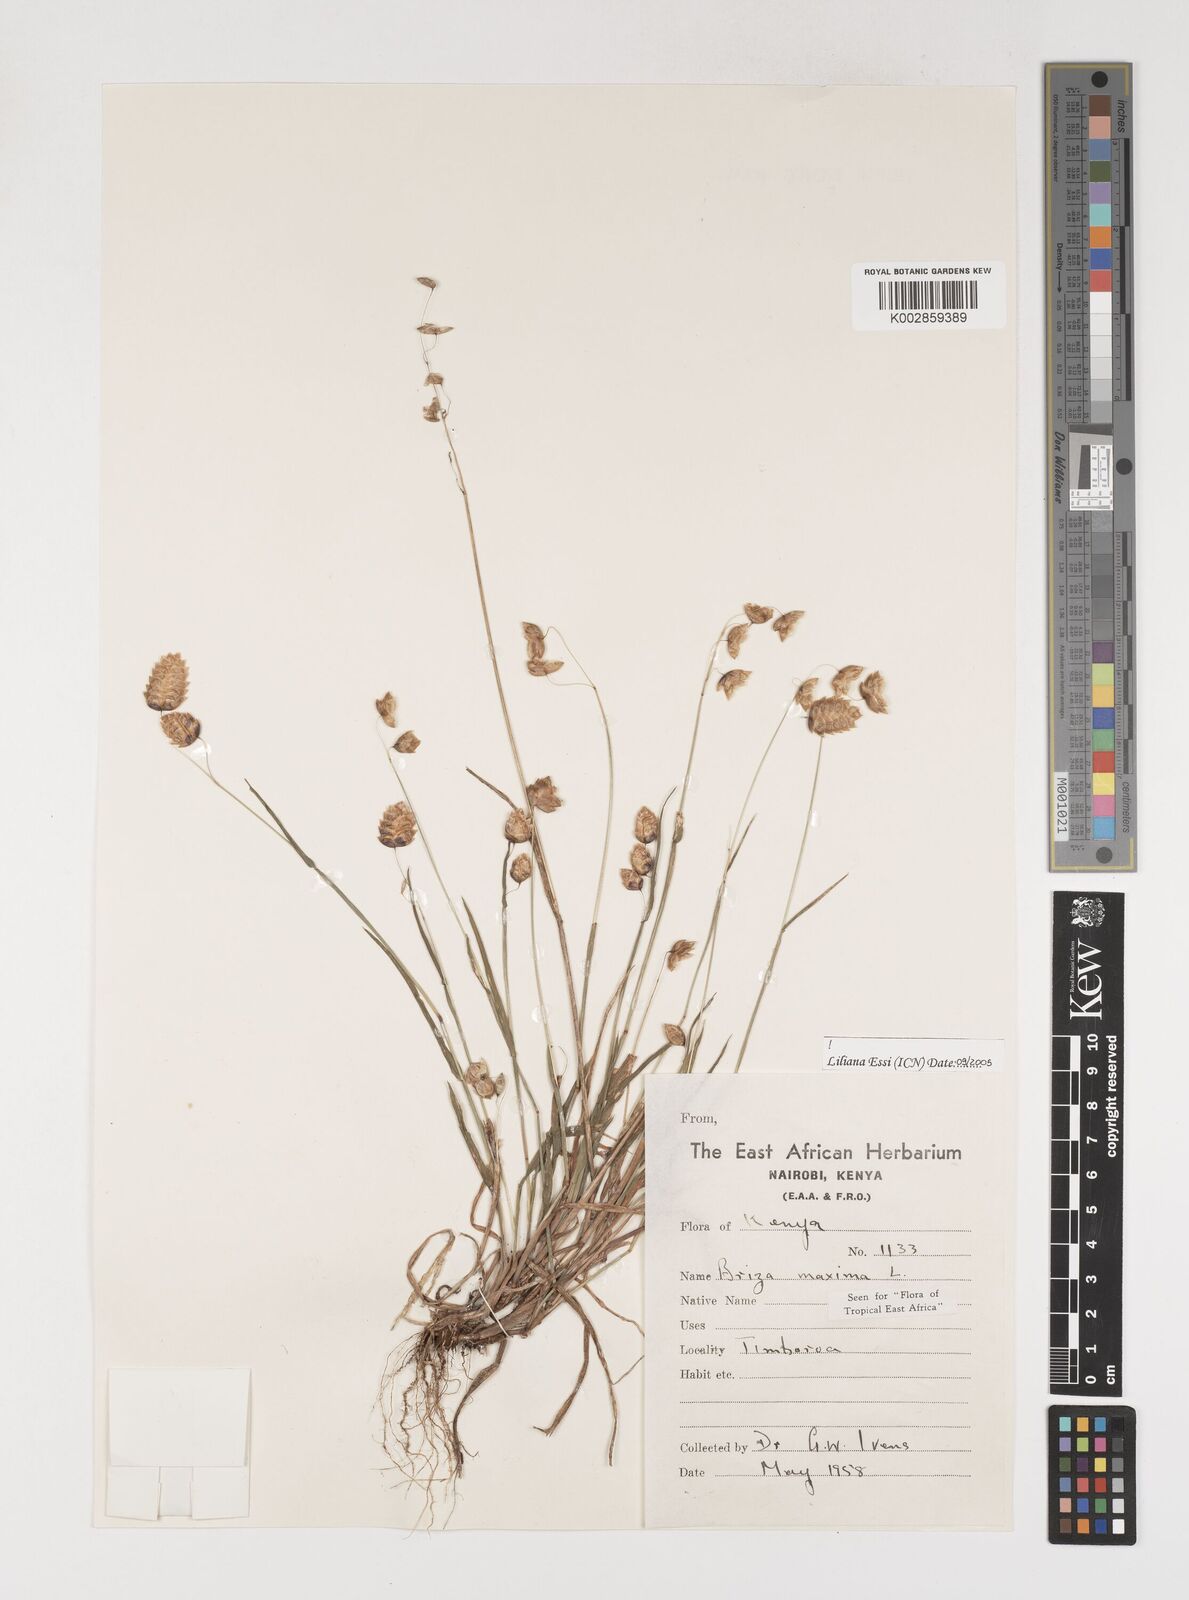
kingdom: Plantae
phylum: Tracheophyta
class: Liliopsida
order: Poales
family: Poaceae
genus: Briza
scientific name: Briza maxima
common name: Big quakinggrass
